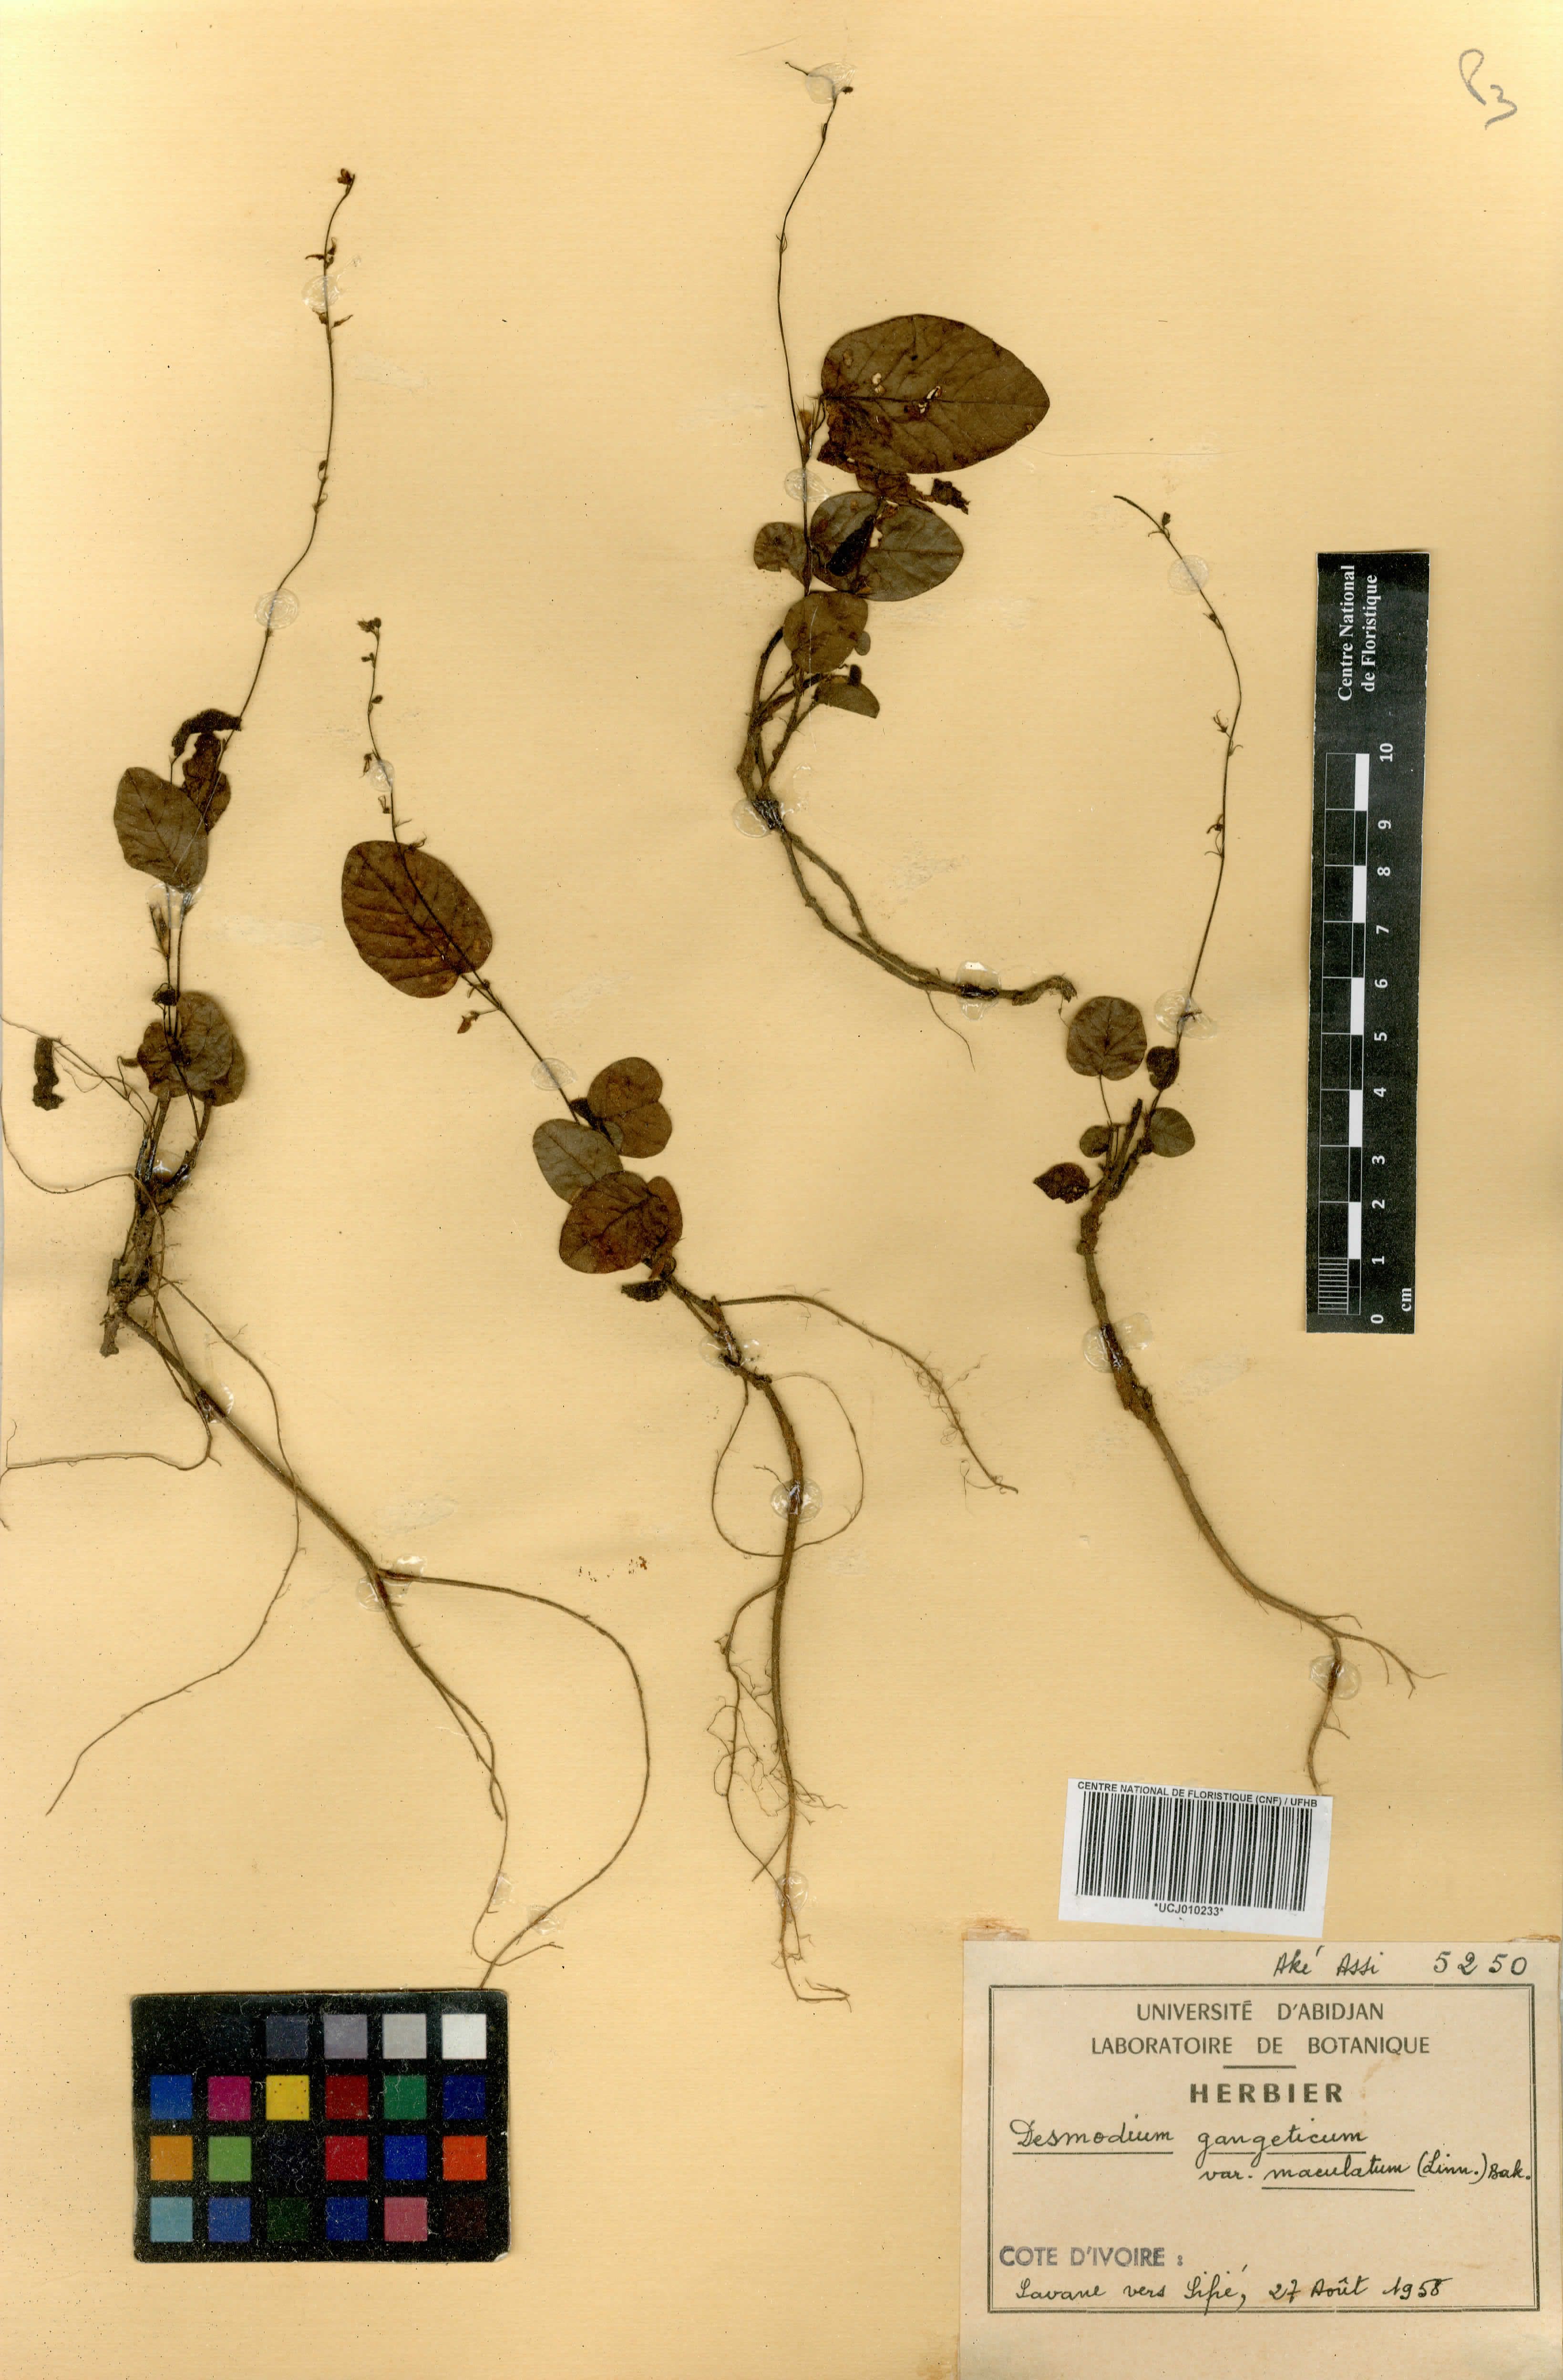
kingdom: Plantae
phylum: Tracheophyta
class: Magnoliopsida
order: Fabales
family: Fabaceae
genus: Pleurolobus
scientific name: Pleurolobus gangeticus
